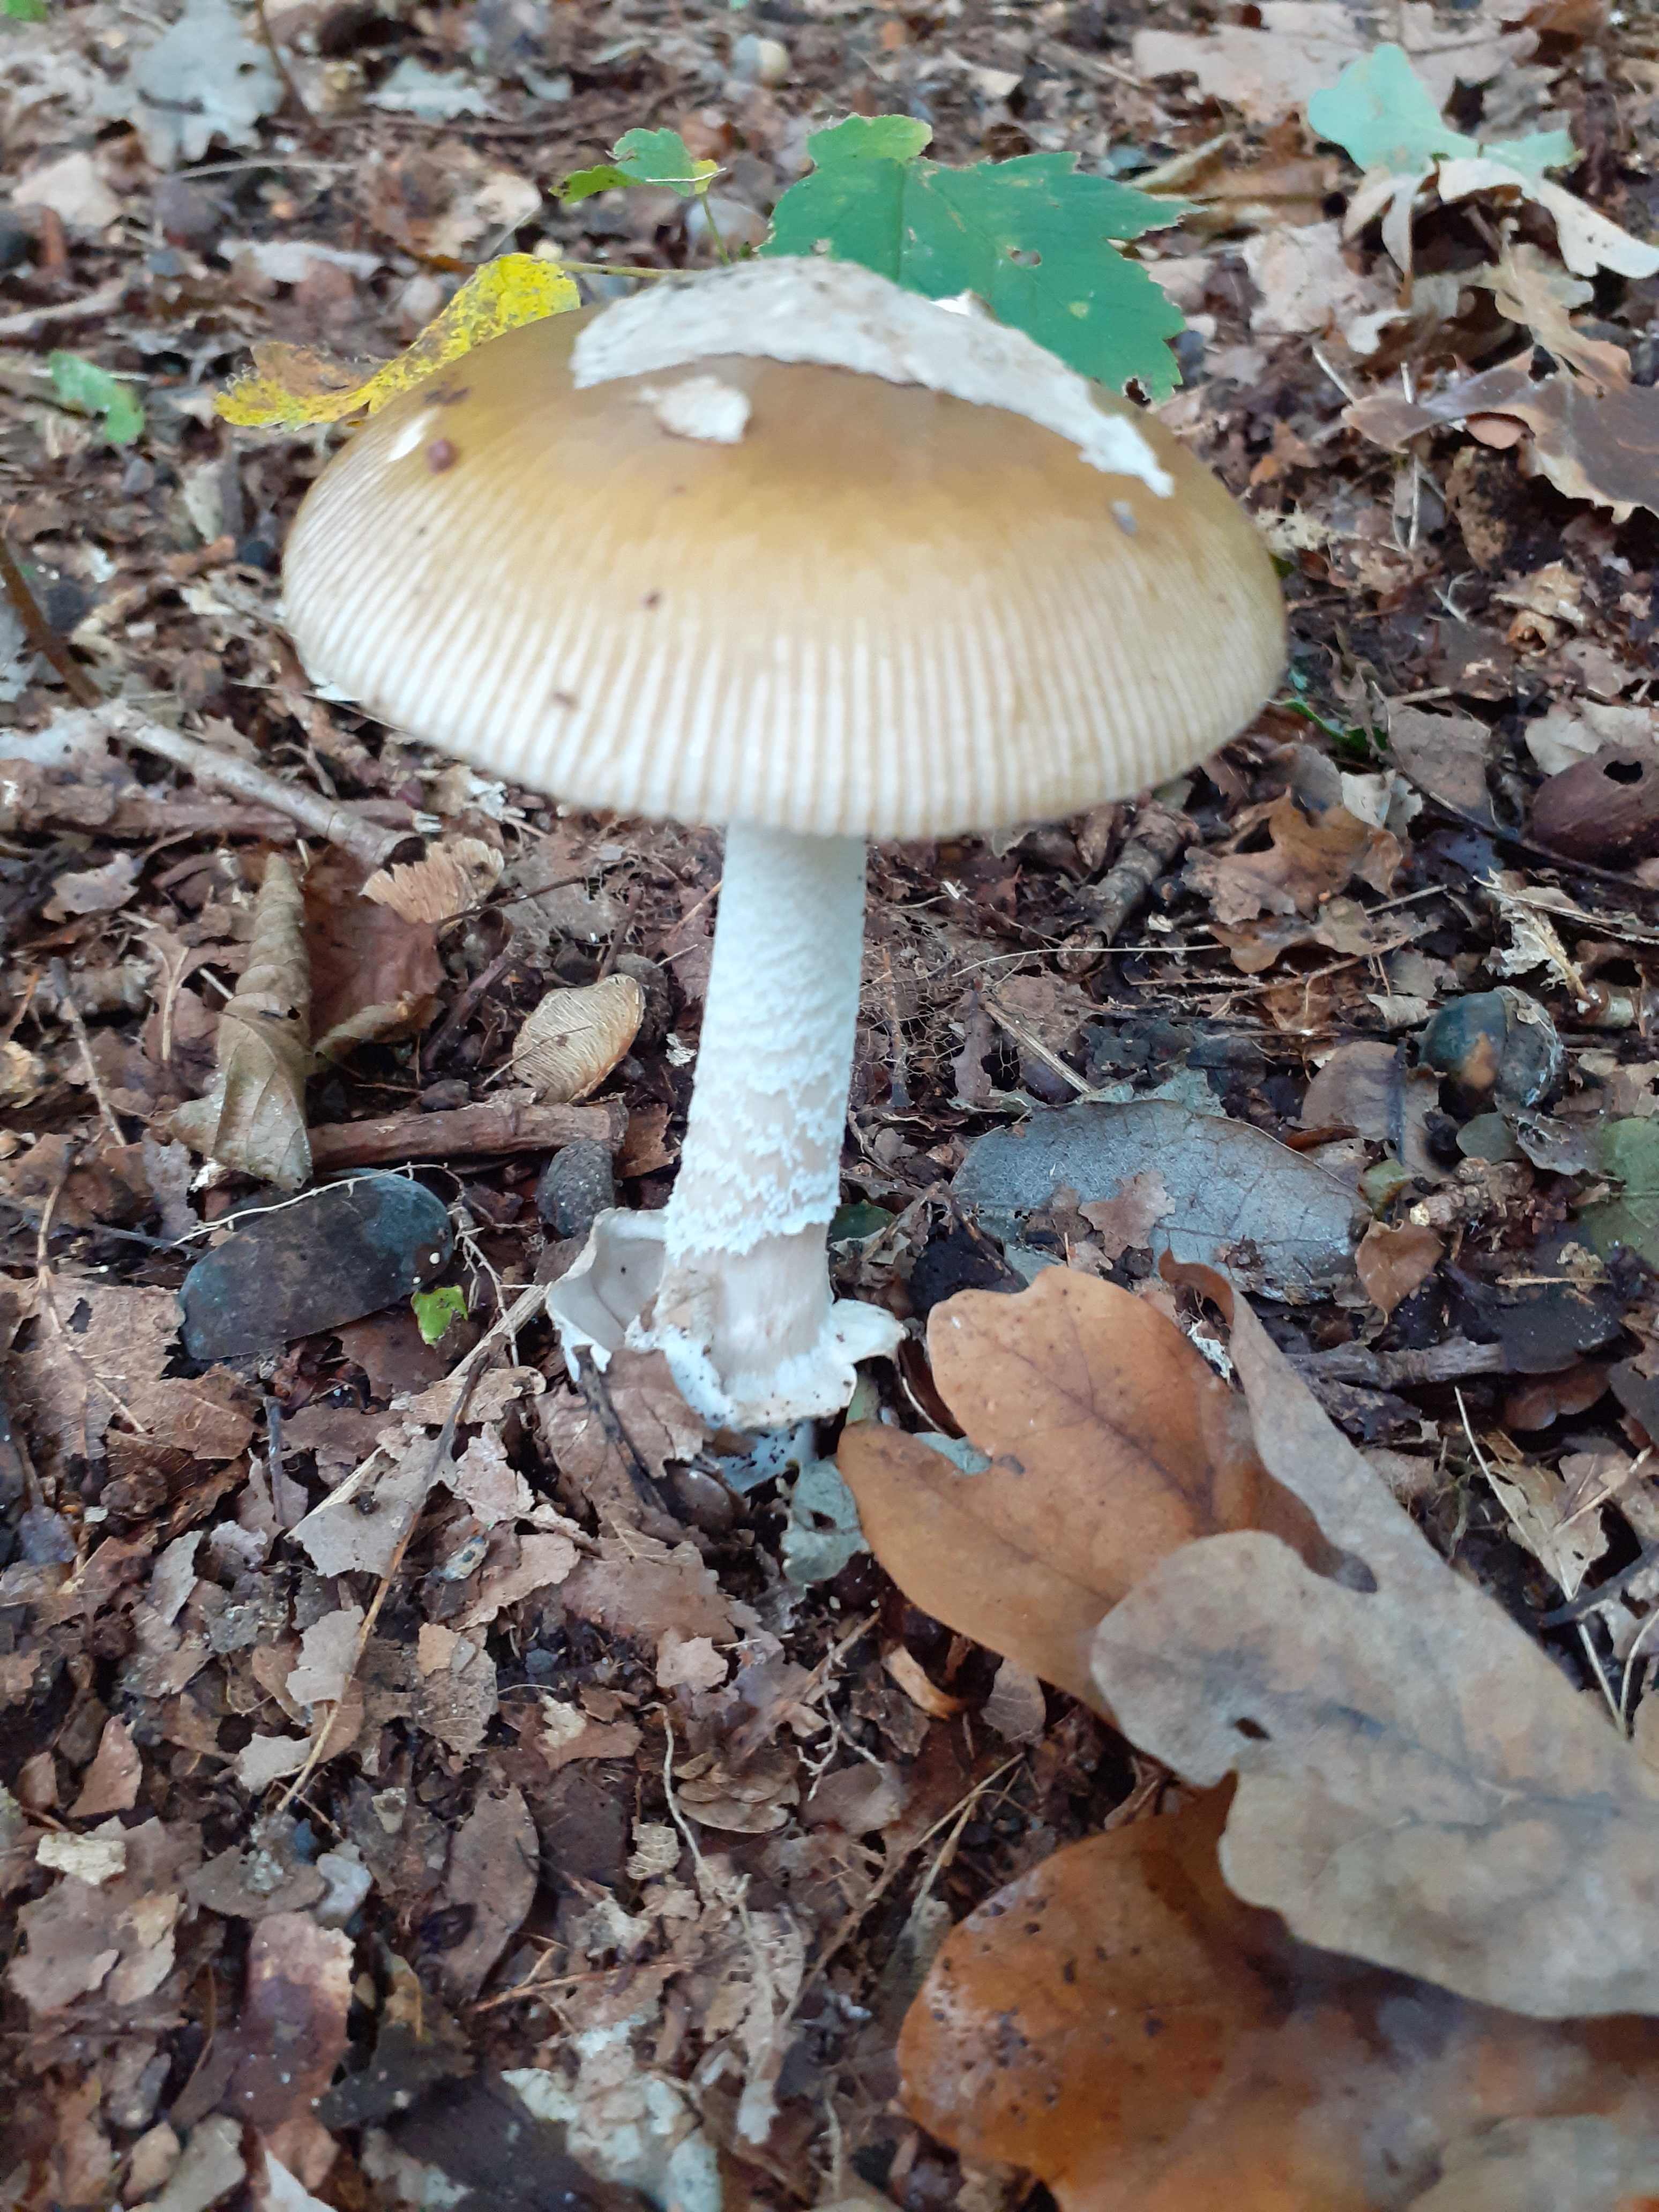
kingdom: Fungi
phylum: Basidiomycota
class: Agaricomycetes
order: Agaricales
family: Amanitaceae
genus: Amanita
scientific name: Amanita submembranacea
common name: gråspættet kam-fluesvamp
